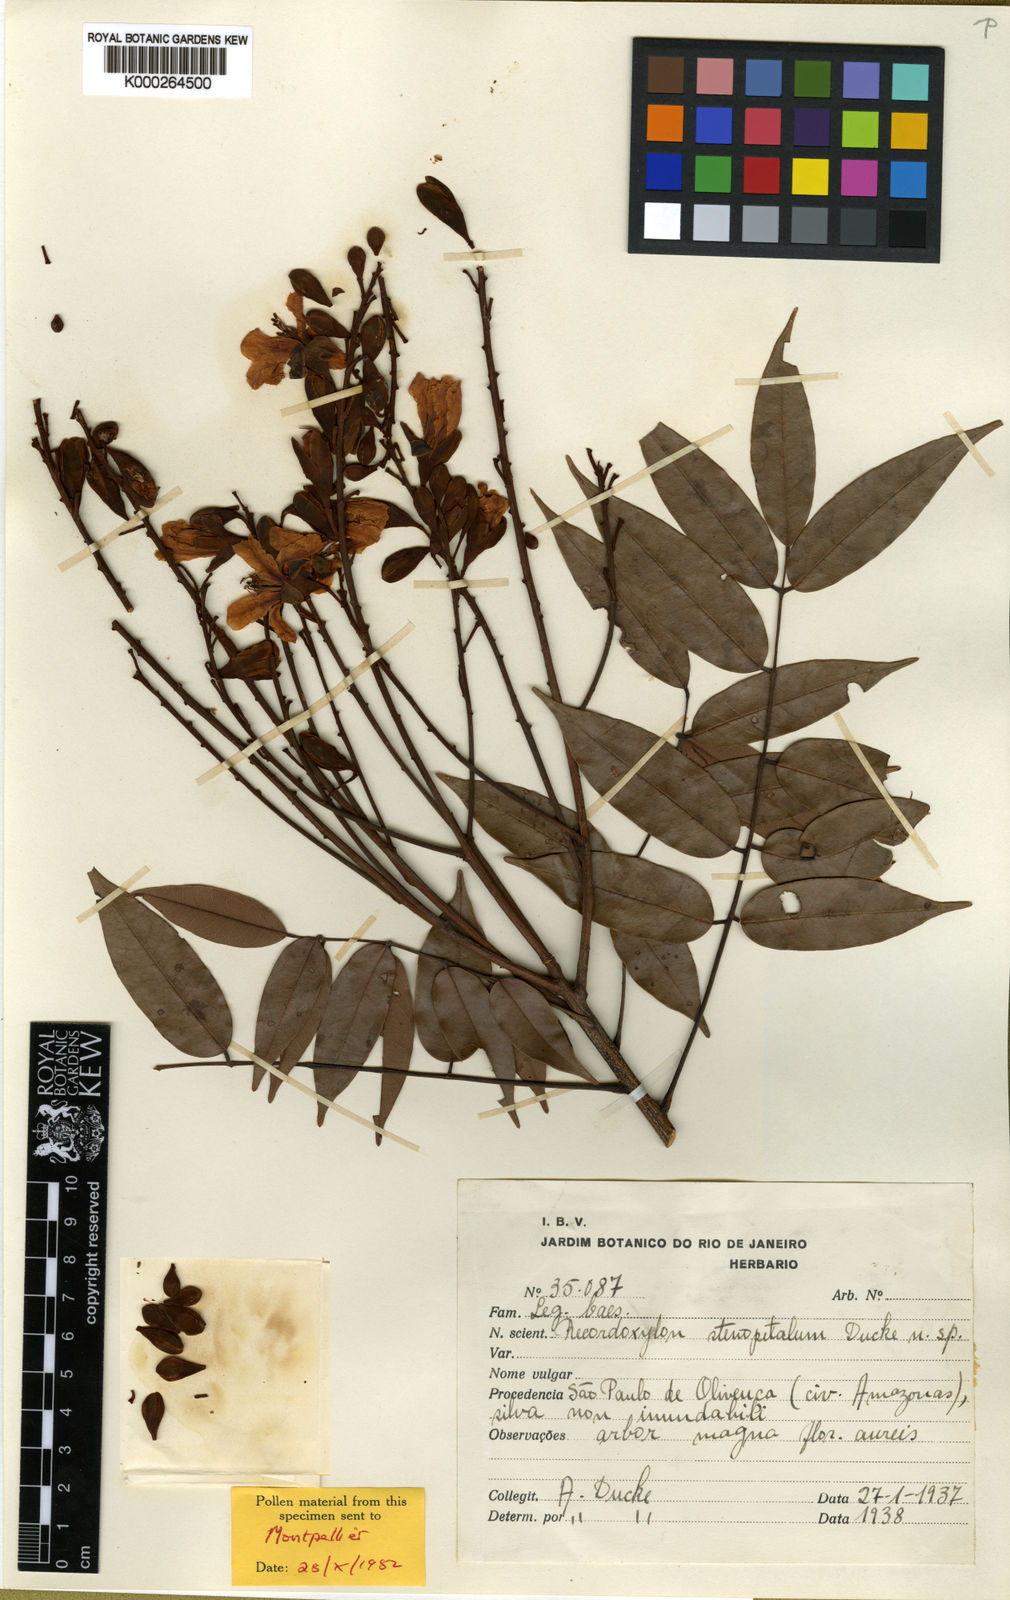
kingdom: Plantae
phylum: Tracheophyta
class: Magnoliopsida
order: Fabales
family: Fabaceae
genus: Recordoxylon
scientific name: Recordoxylon stenopetalum
